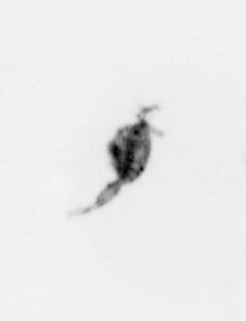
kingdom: Animalia
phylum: Arthropoda
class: Copepoda
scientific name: Copepoda
